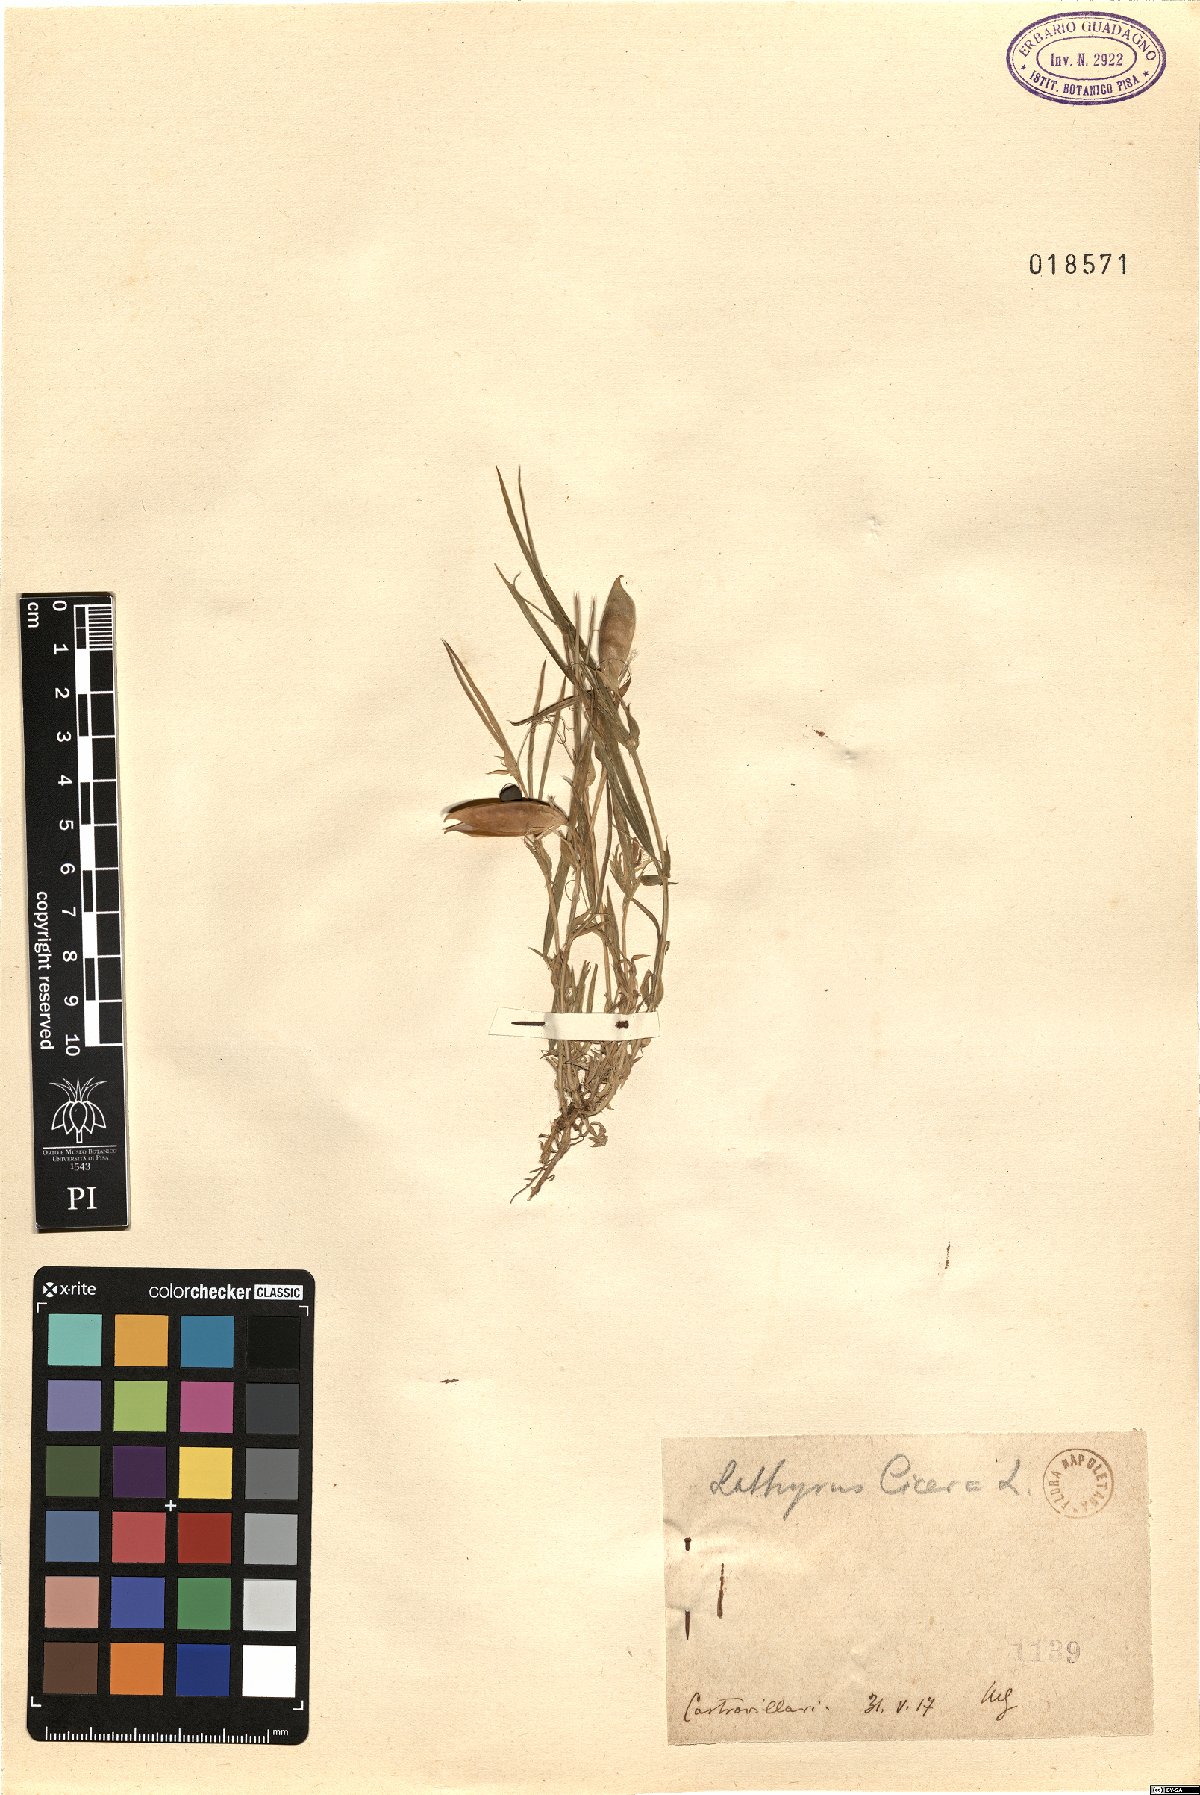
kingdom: Plantae
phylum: Tracheophyta
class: Magnoliopsida
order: Fabales
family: Fabaceae
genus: Lathyrus
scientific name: Lathyrus cicera
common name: Red vetchling
